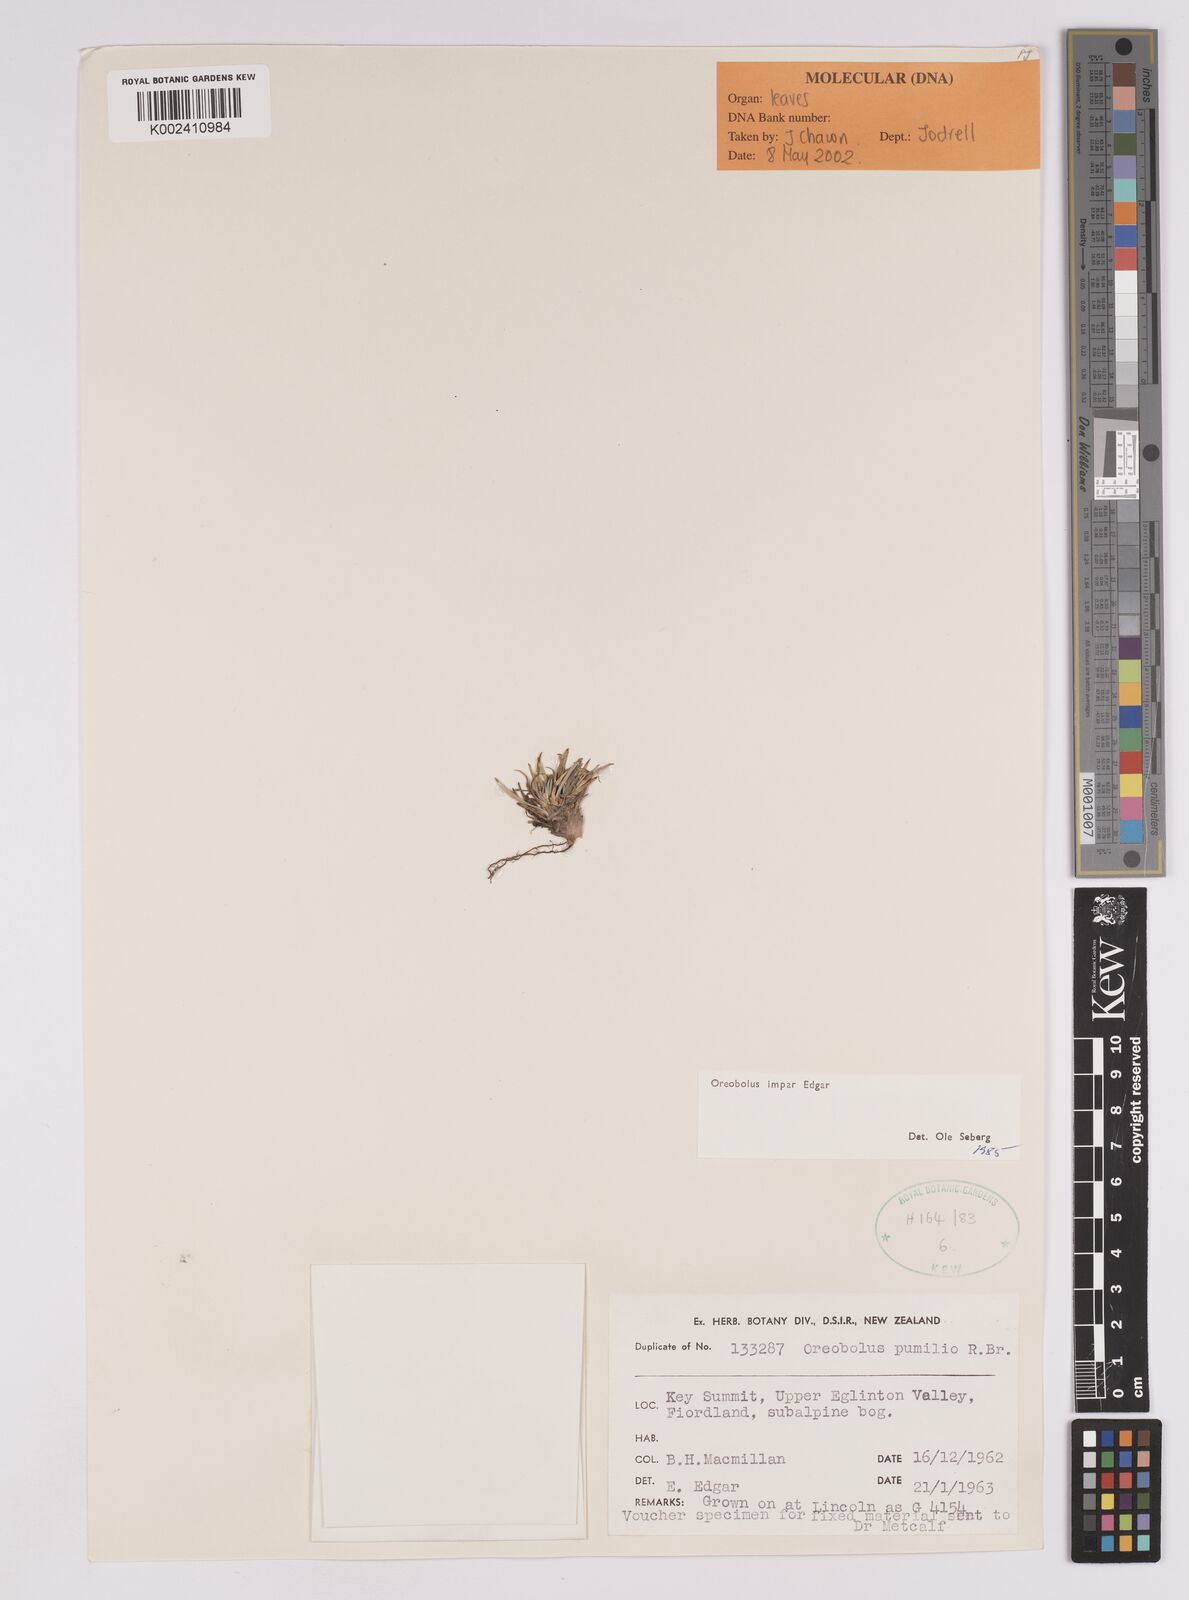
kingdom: Plantae
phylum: Tracheophyta
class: Liliopsida
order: Poales
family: Cyperaceae
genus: Oreobolus
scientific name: Oreobolus impar
